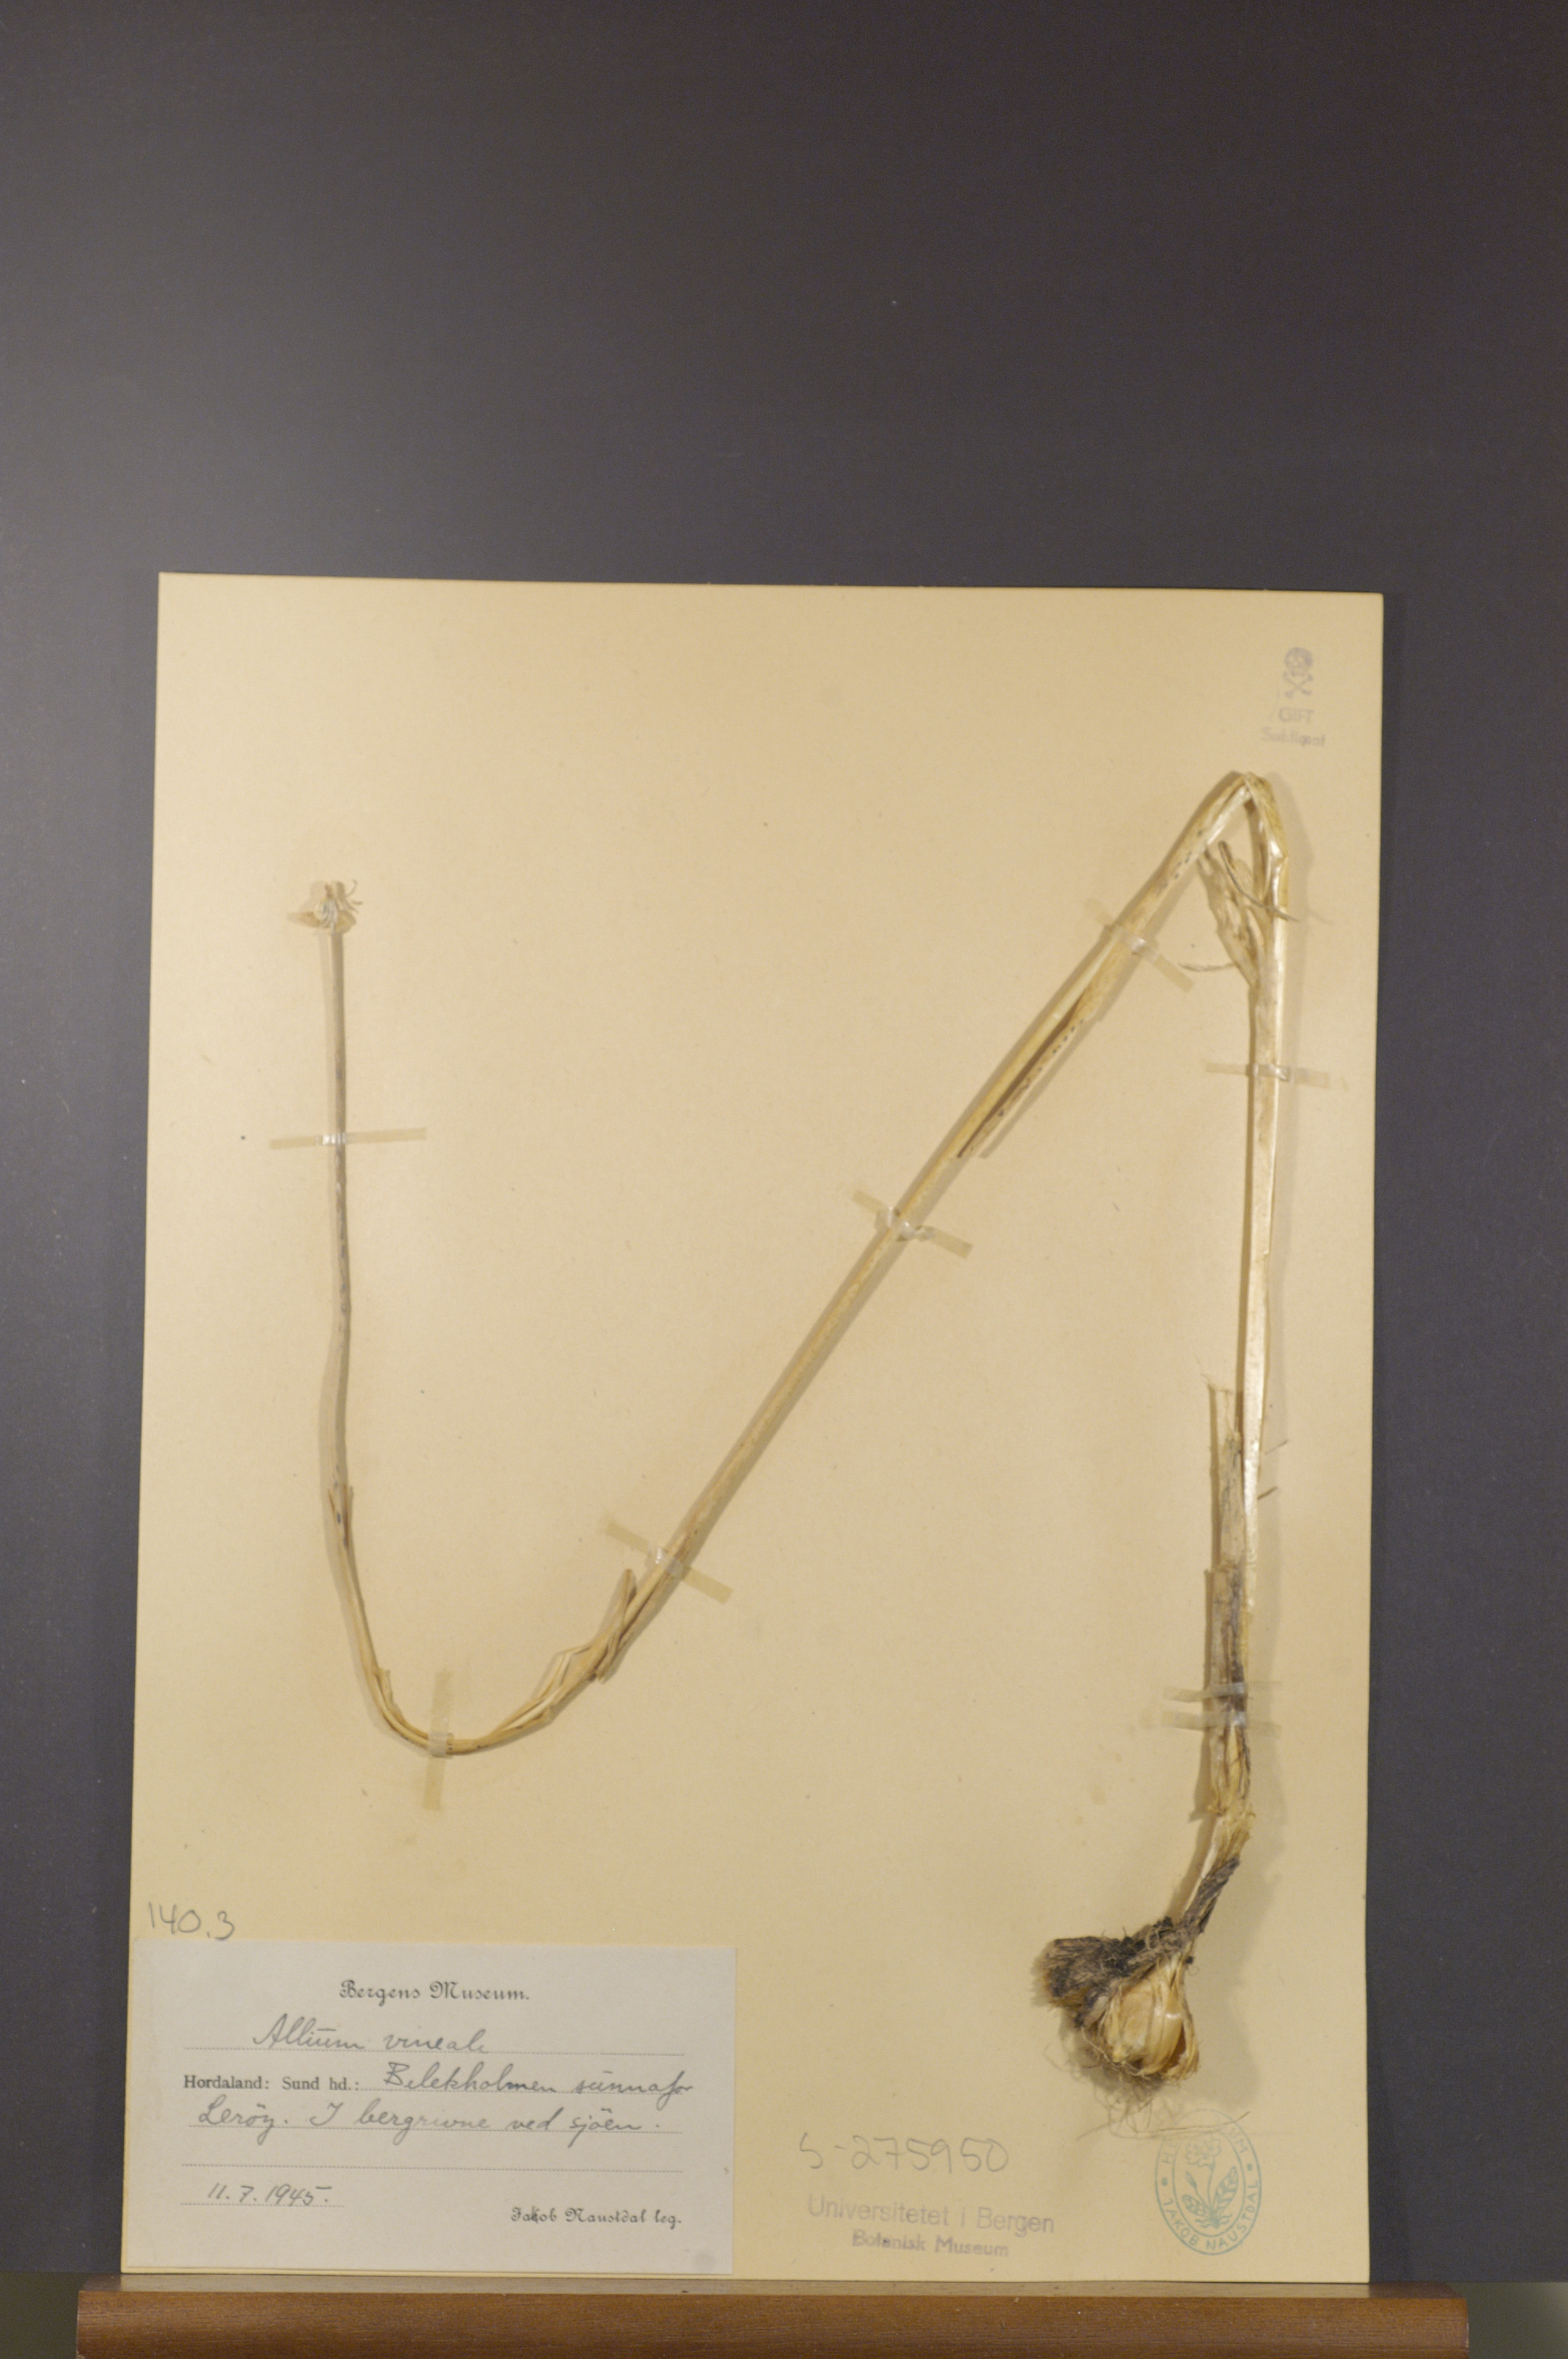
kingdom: Plantae
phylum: Tracheophyta
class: Liliopsida
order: Asparagales
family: Amaryllidaceae
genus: Allium
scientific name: Allium vineale
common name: Crow garlic
